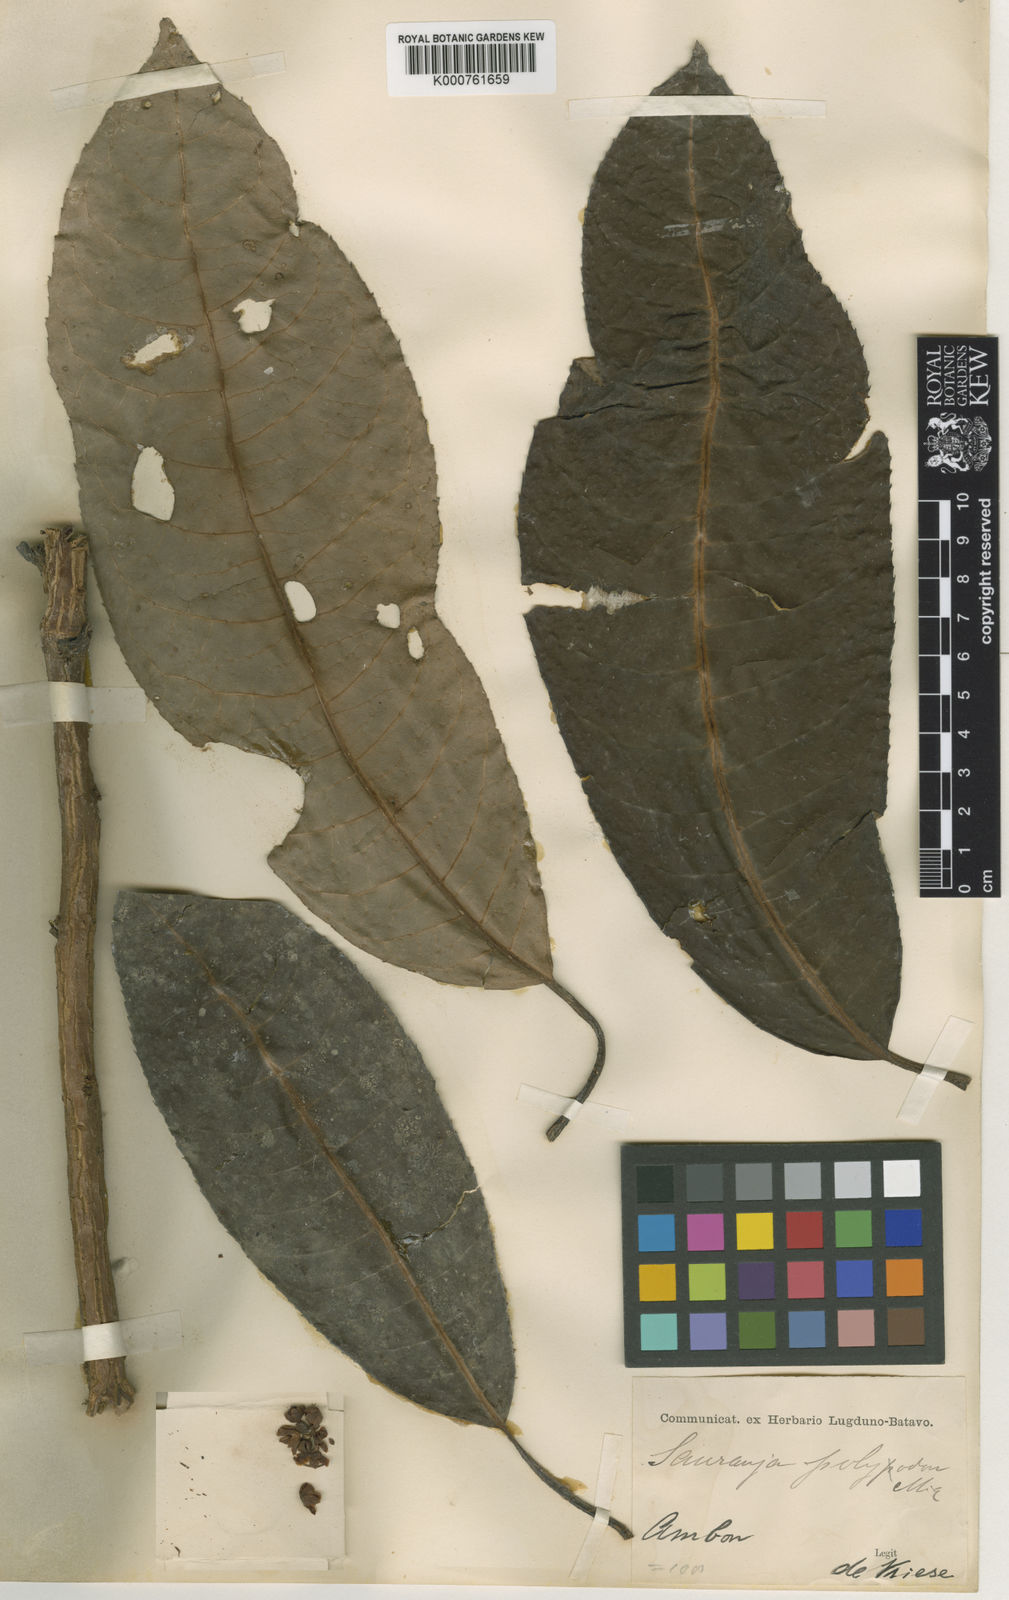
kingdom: Plantae
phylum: Tracheophyta
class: Magnoliopsida
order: Ericales
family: Actinidiaceae
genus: Saurauia
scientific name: Saurauia polyodon
